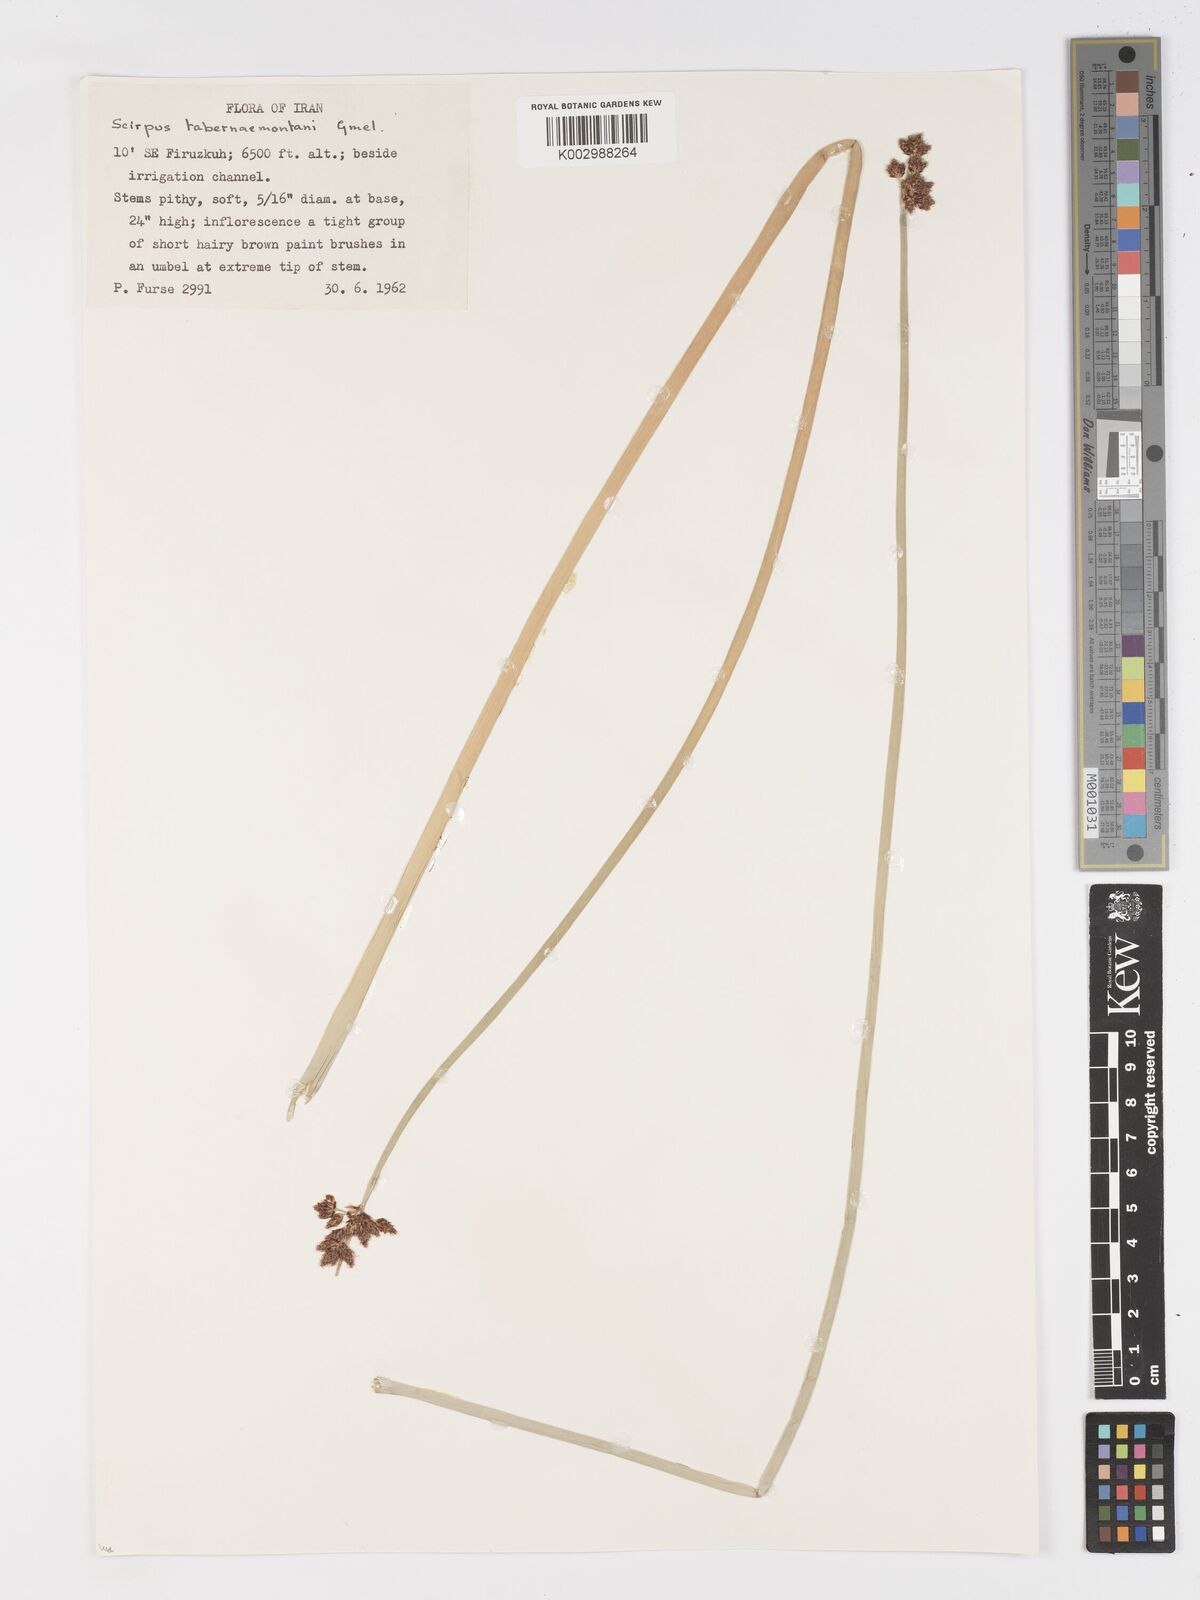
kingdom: Plantae
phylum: Tracheophyta
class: Liliopsida
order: Poales
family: Cyperaceae
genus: Schoenoplectus
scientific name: Schoenoplectus tabernaemontani
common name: Grey club-rush
